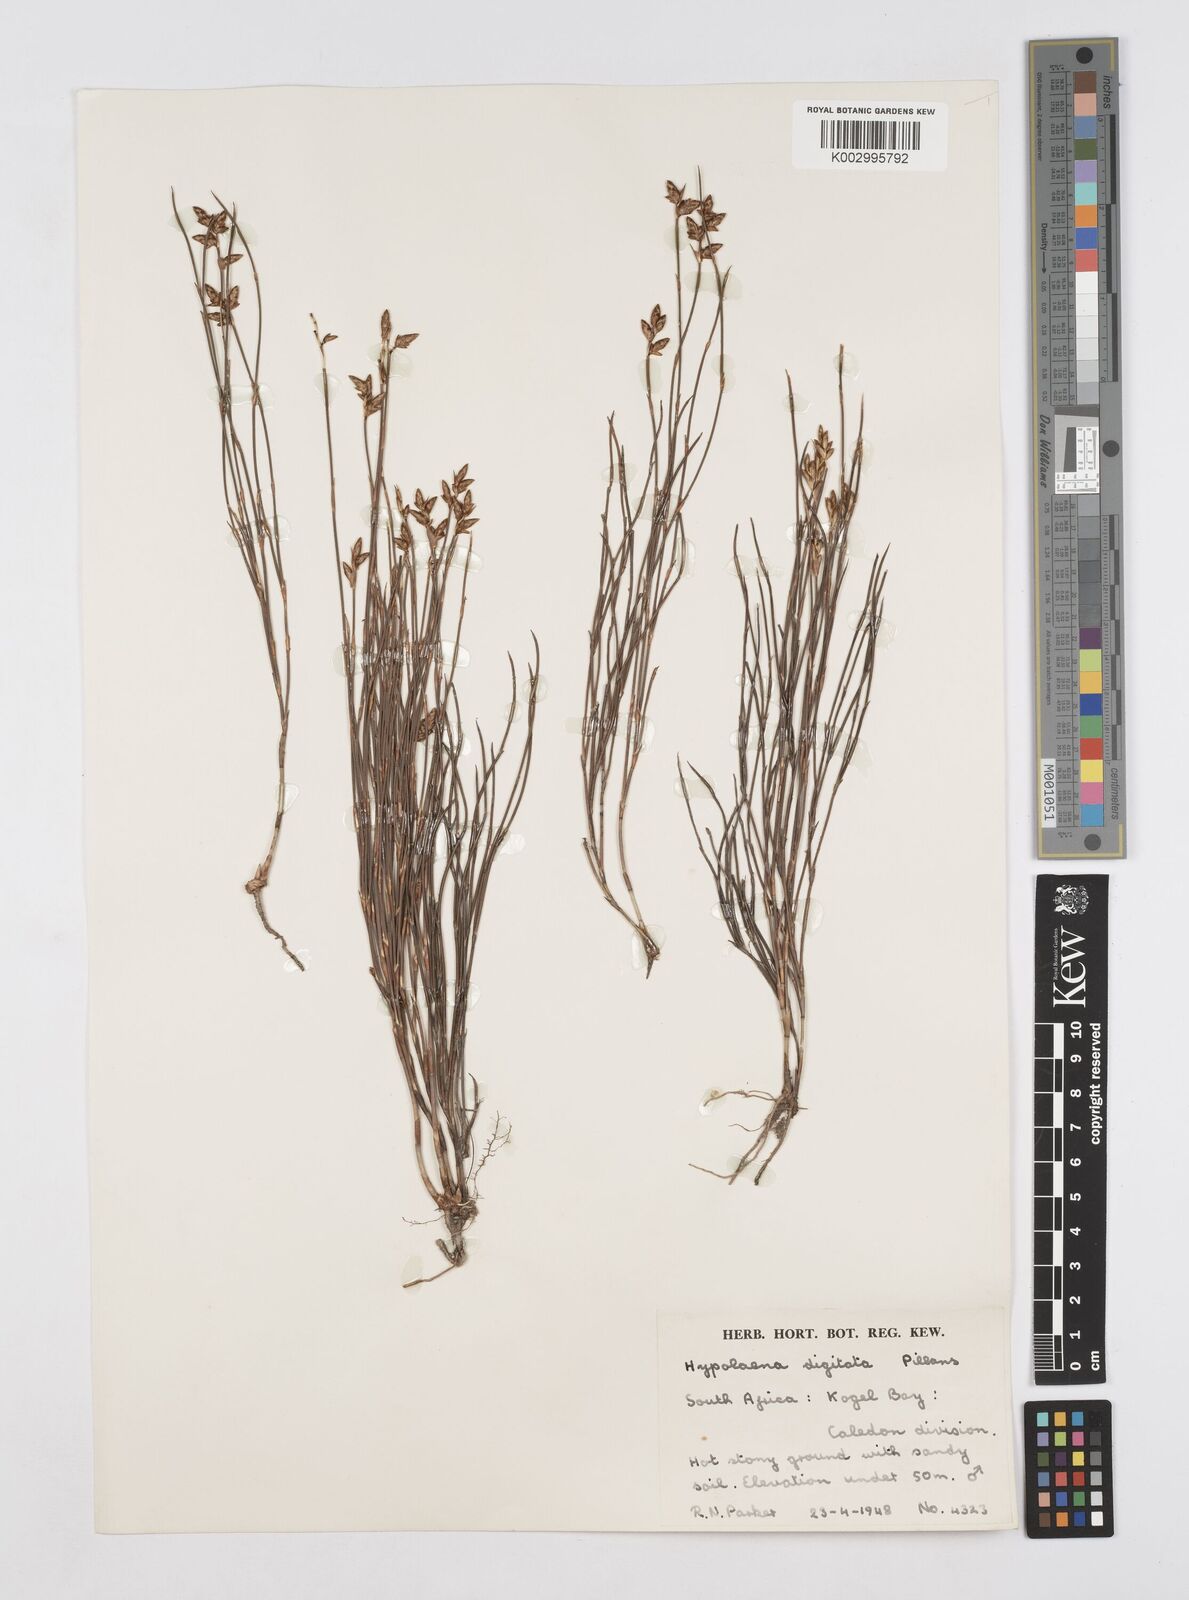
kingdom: Plantae
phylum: Tracheophyta
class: Liliopsida
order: Poales
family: Restionaceae
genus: Mastersiella
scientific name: Mastersiella digitata
